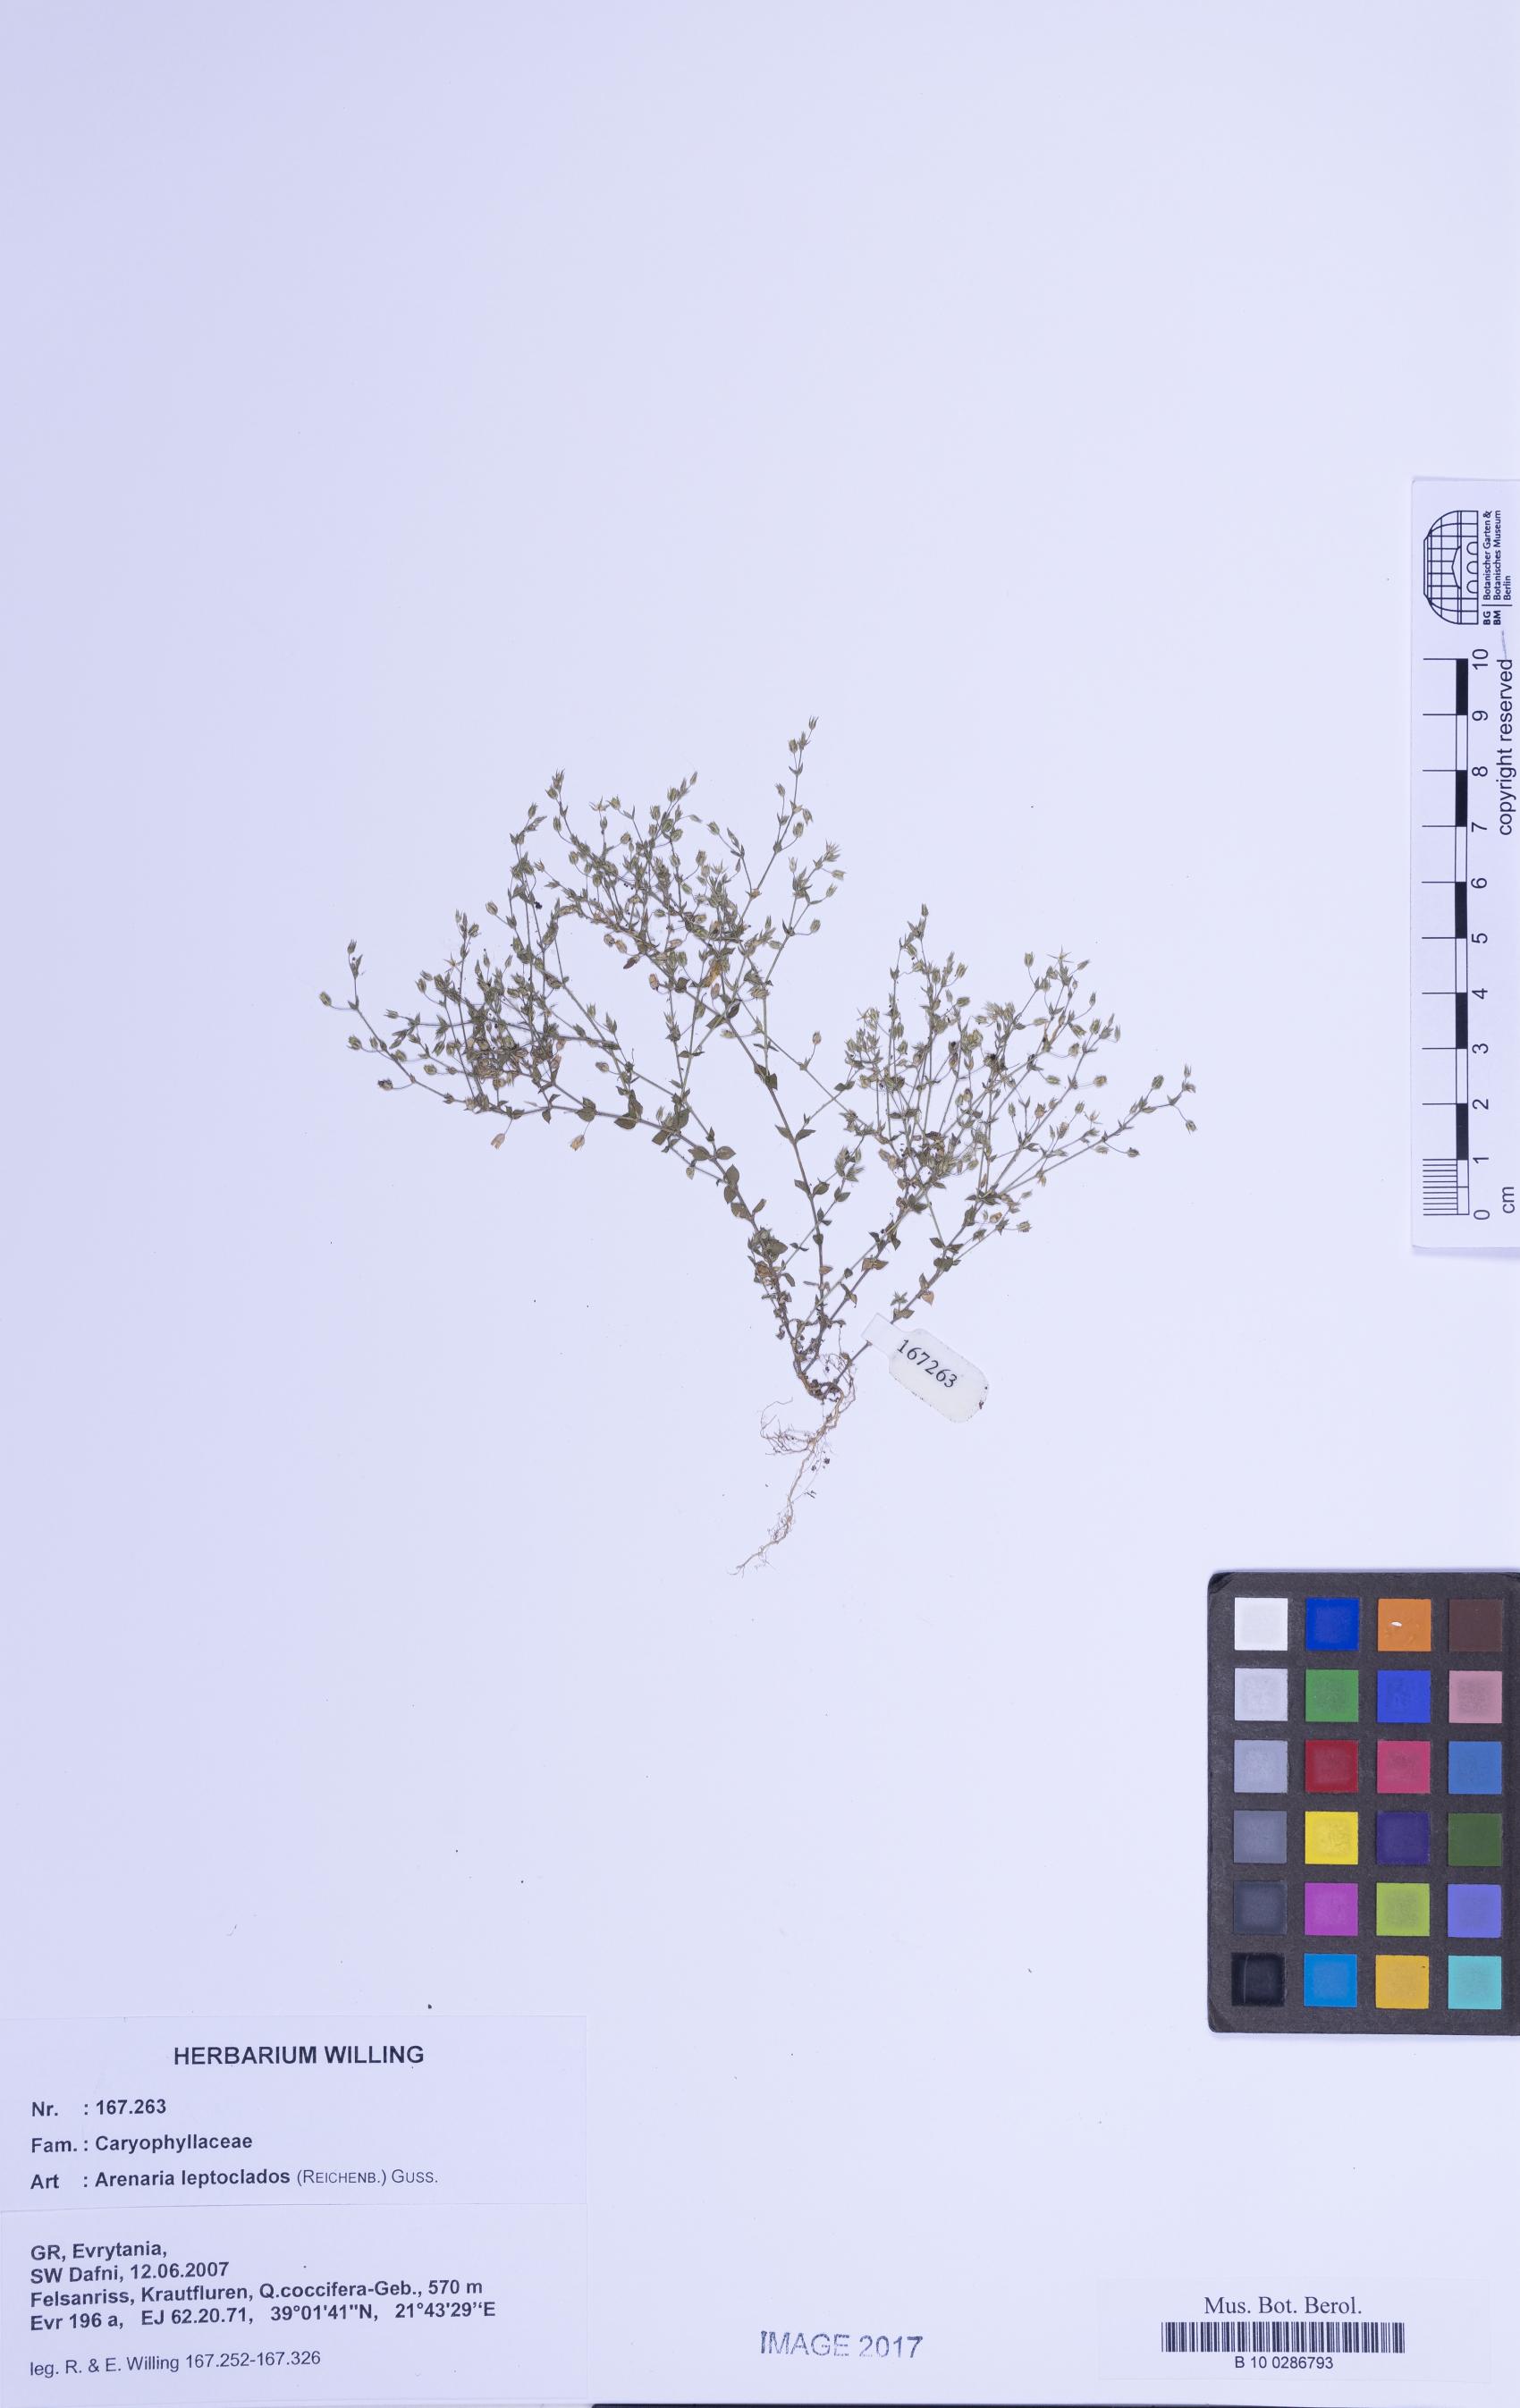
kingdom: Plantae
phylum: Tracheophyta
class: Magnoliopsida
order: Caryophyllales
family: Caryophyllaceae
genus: Arenaria
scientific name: Arenaria leptoclados
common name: Thyme-leaved sandwort
